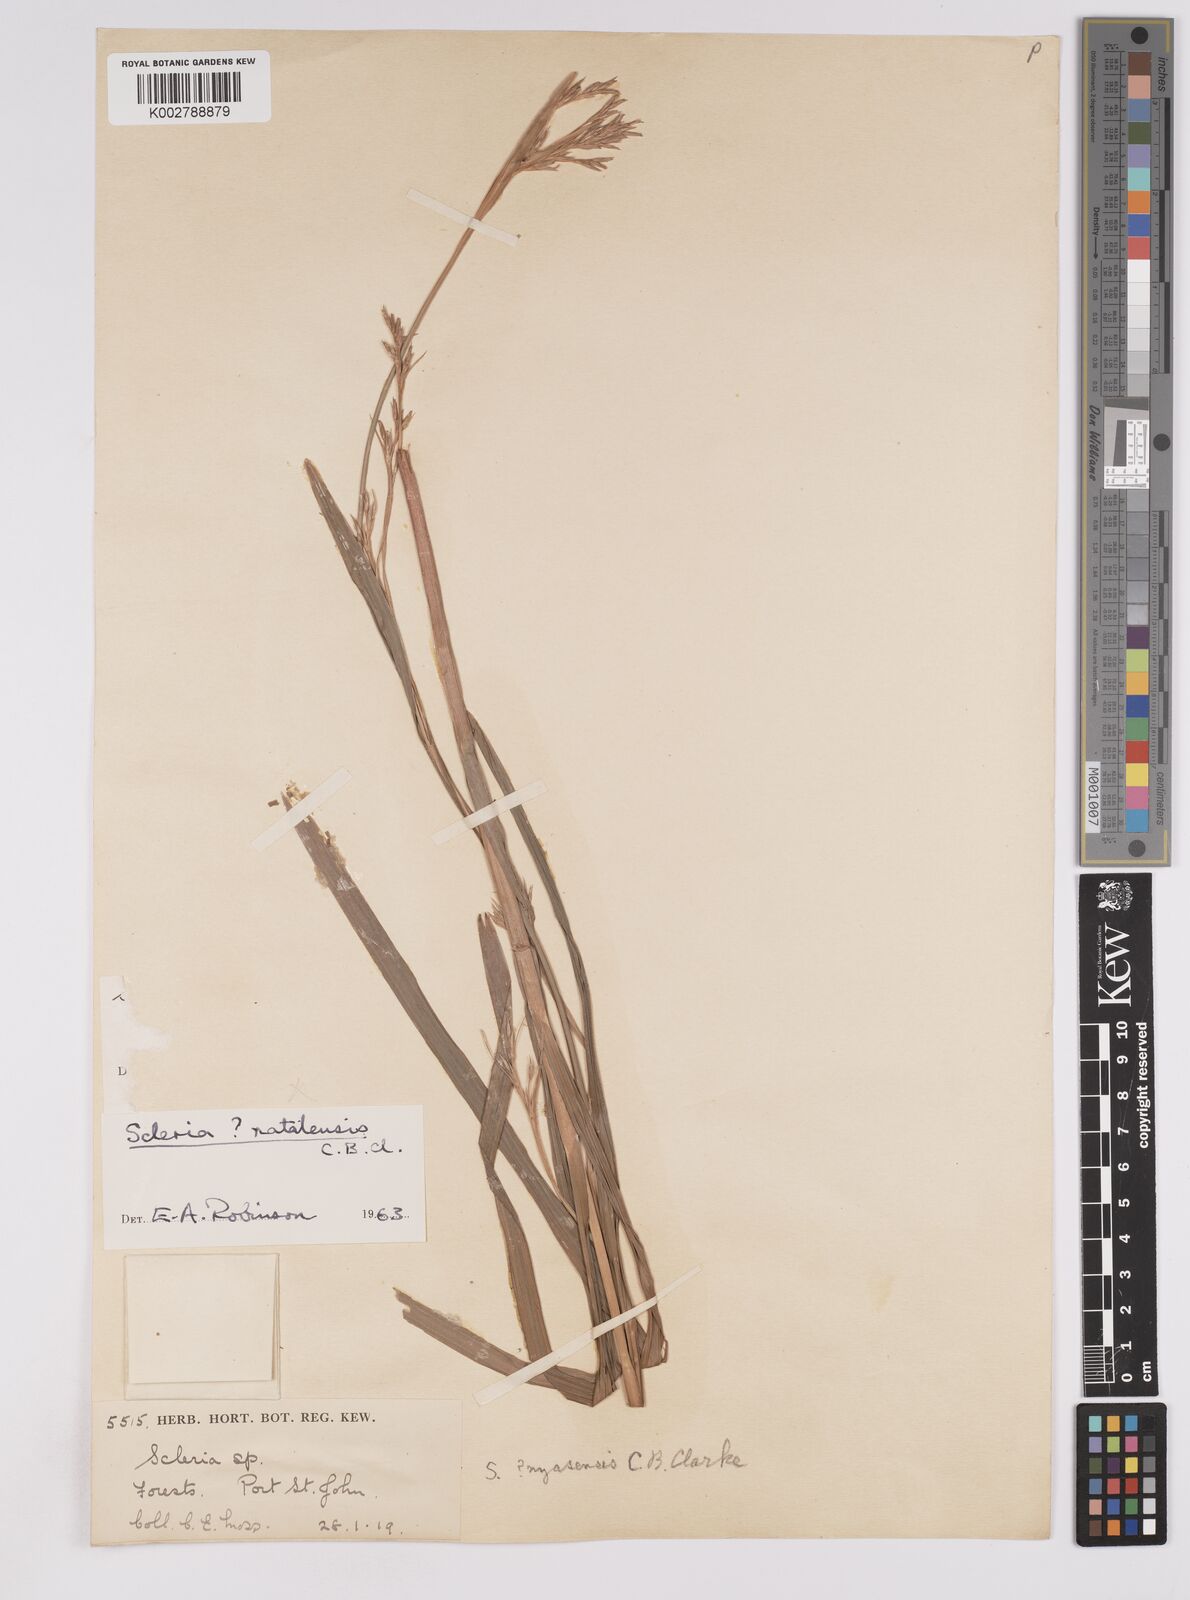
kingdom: Plantae
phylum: Tracheophyta
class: Liliopsida
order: Poales
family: Cyperaceae
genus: Scleria
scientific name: Scleria natalensis
